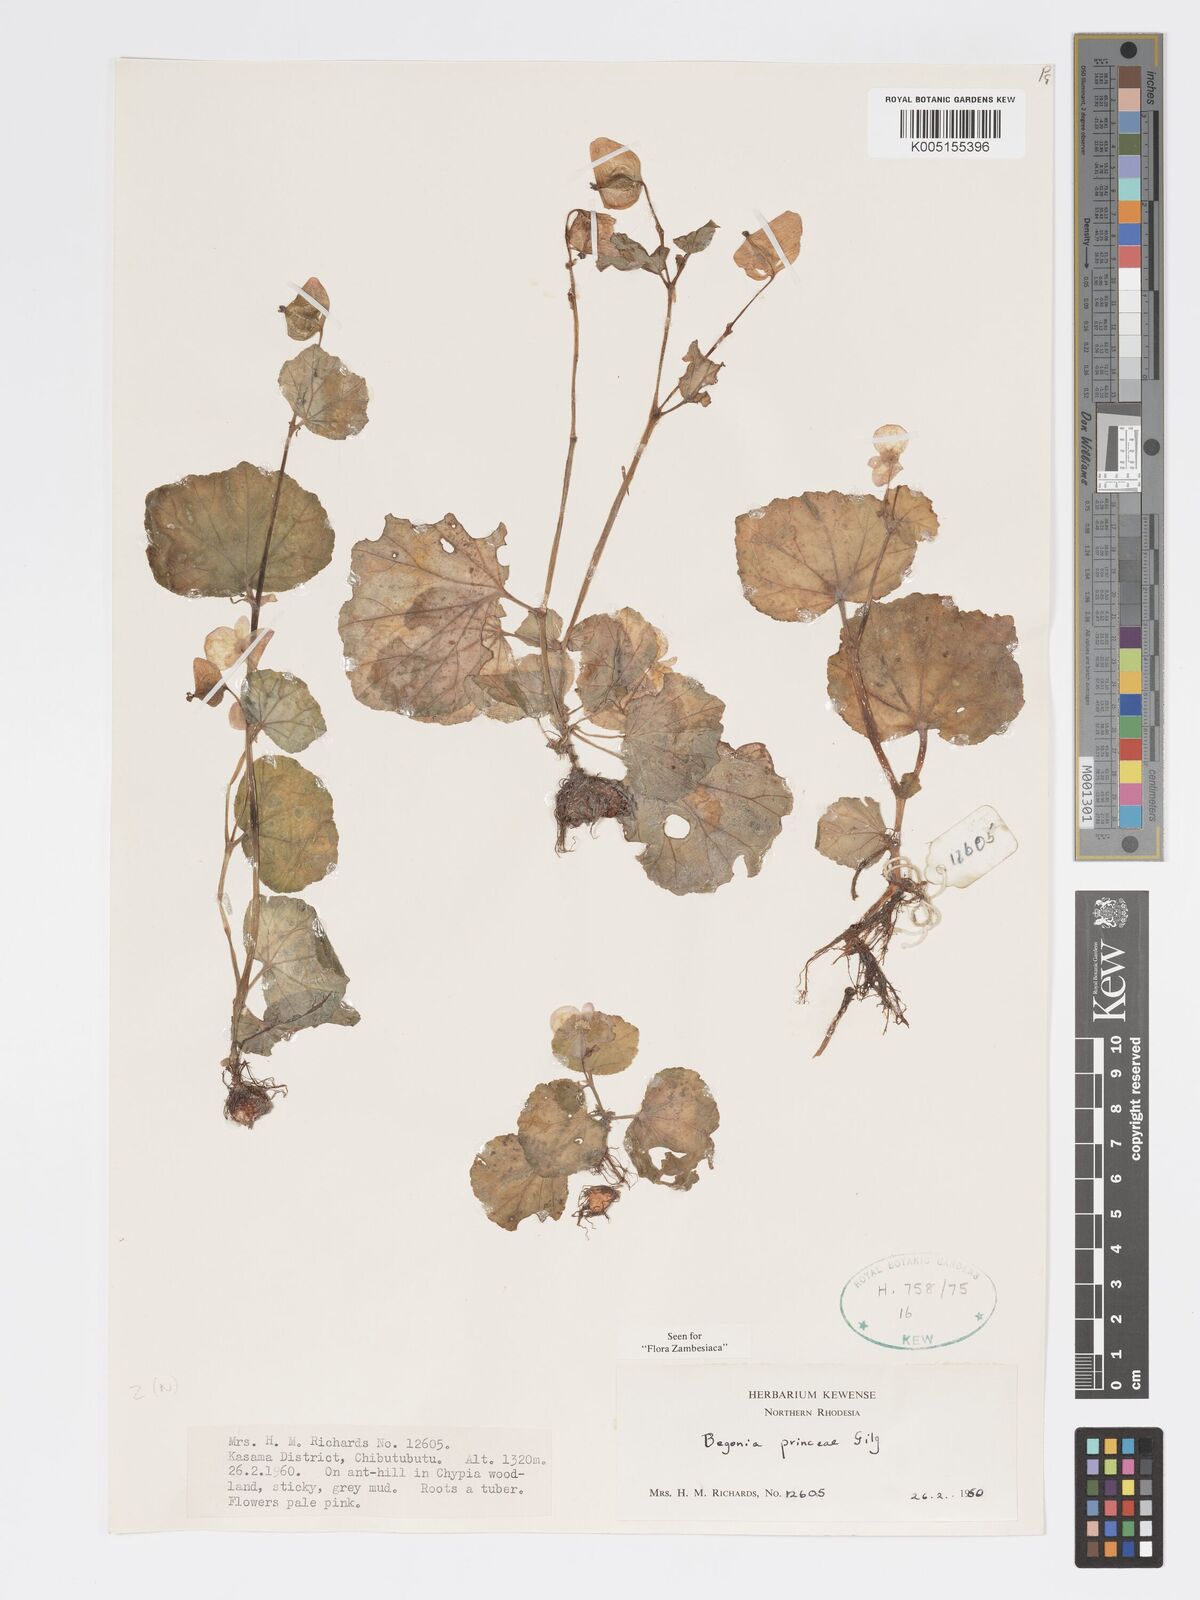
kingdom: Plantae
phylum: Tracheophyta
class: Magnoliopsida
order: Cucurbitales
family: Begoniaceae
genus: Begonia
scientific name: Begonia princeae
